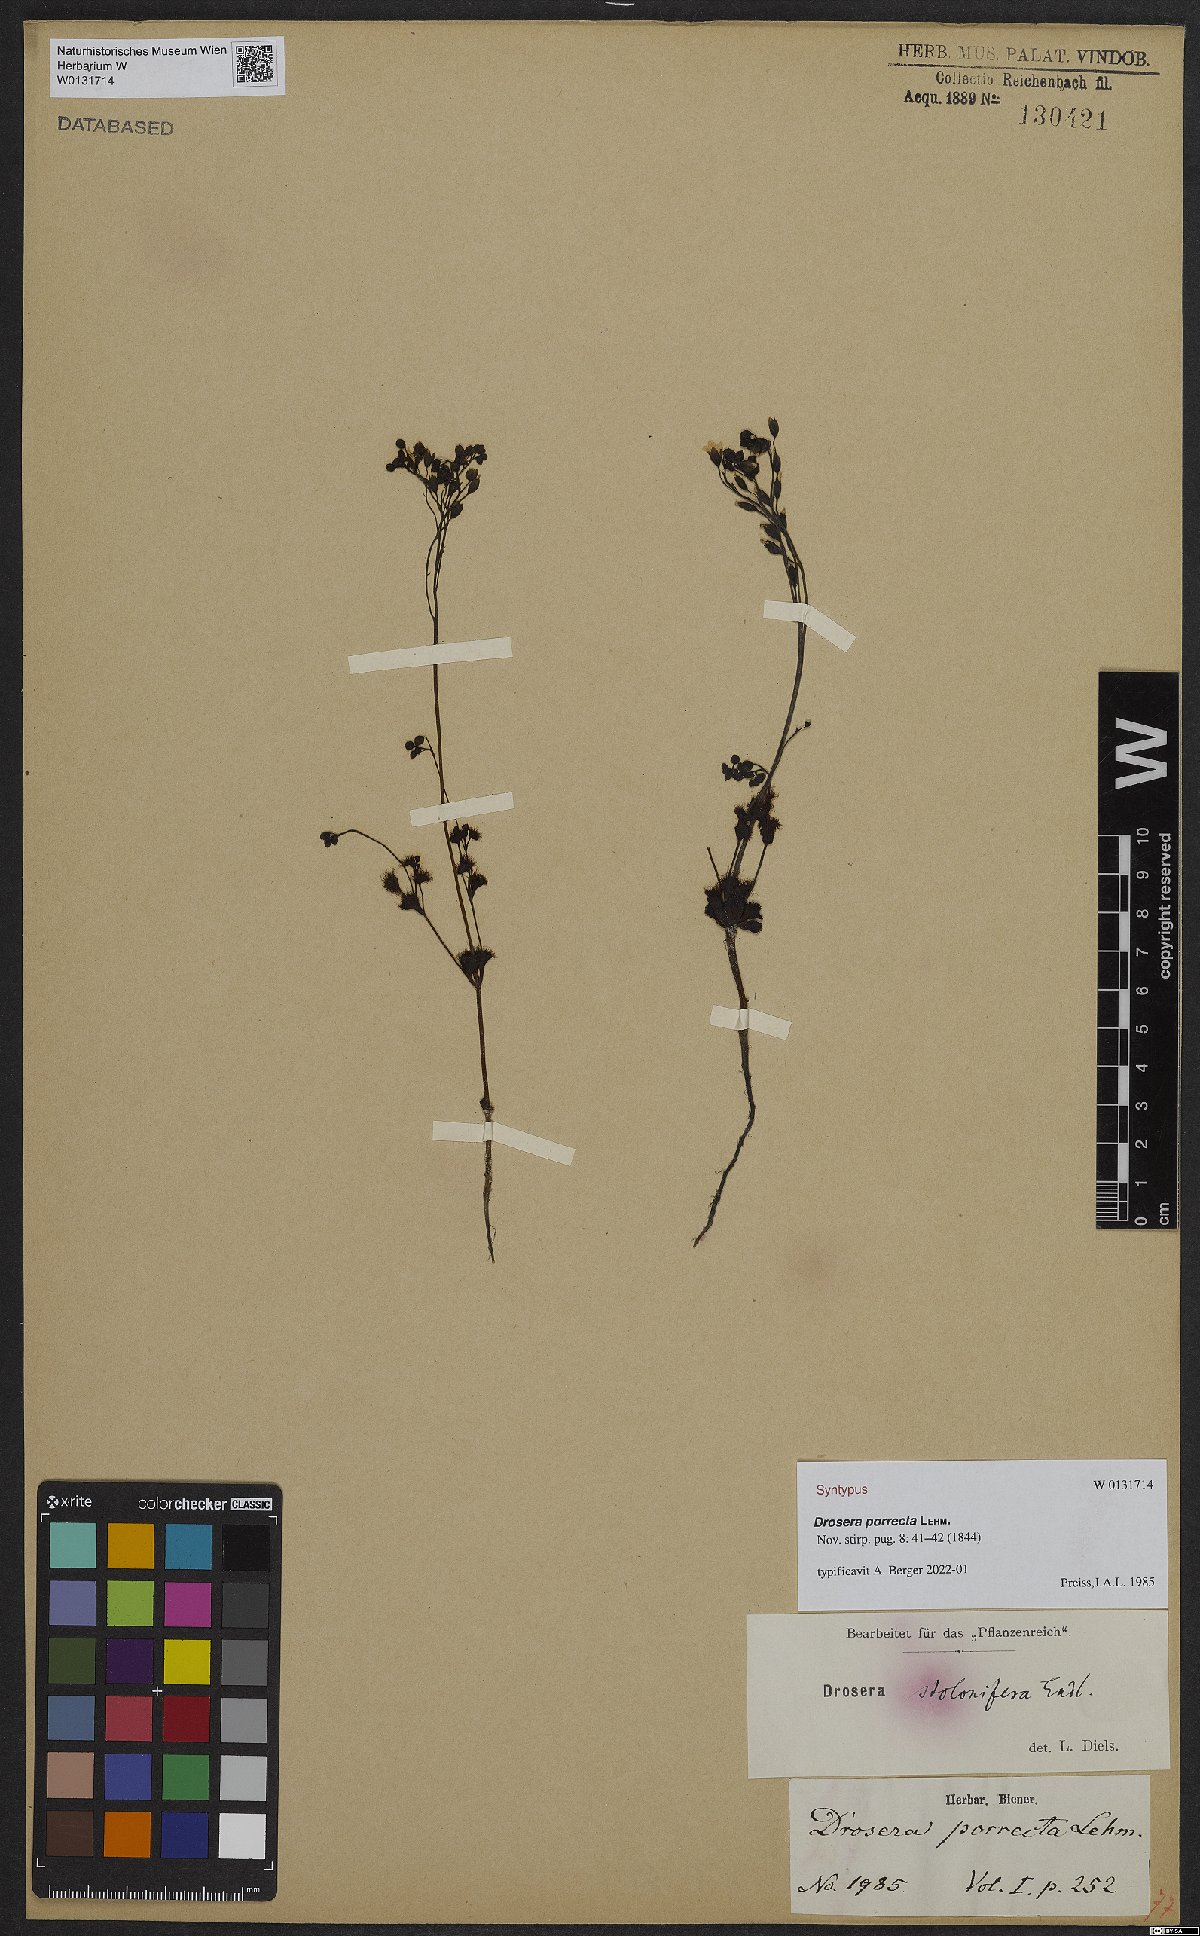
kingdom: Plantae
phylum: Tracheophyta
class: Magnoliopsida
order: Caryophyllales
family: Droseraceae
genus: Drosera
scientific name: Drosera stolonifera
